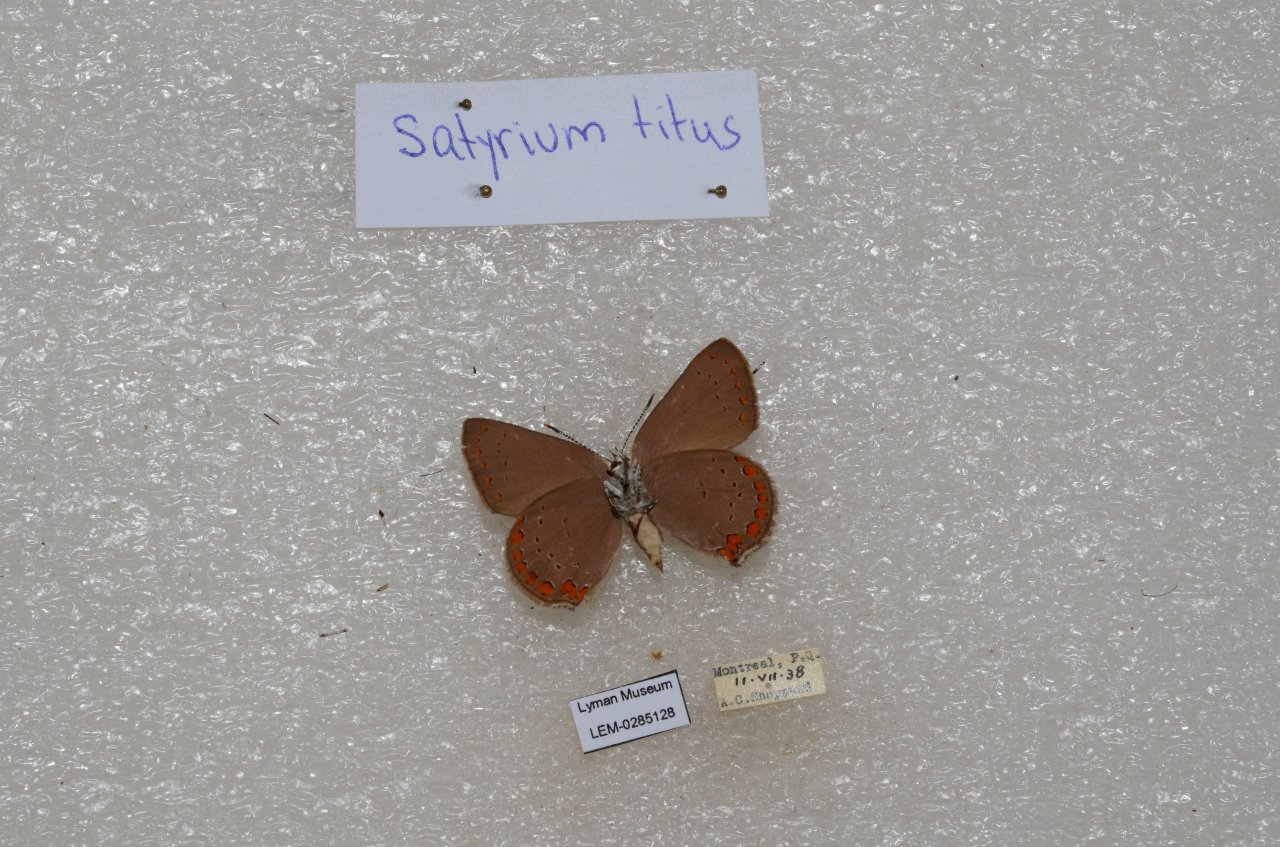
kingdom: Animalia
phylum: Arthropoda
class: Insecta
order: Lepidoptera
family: Lycaenidae
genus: Harkenclenus
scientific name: Harkenclenus titus
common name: Coral Hairstreak
